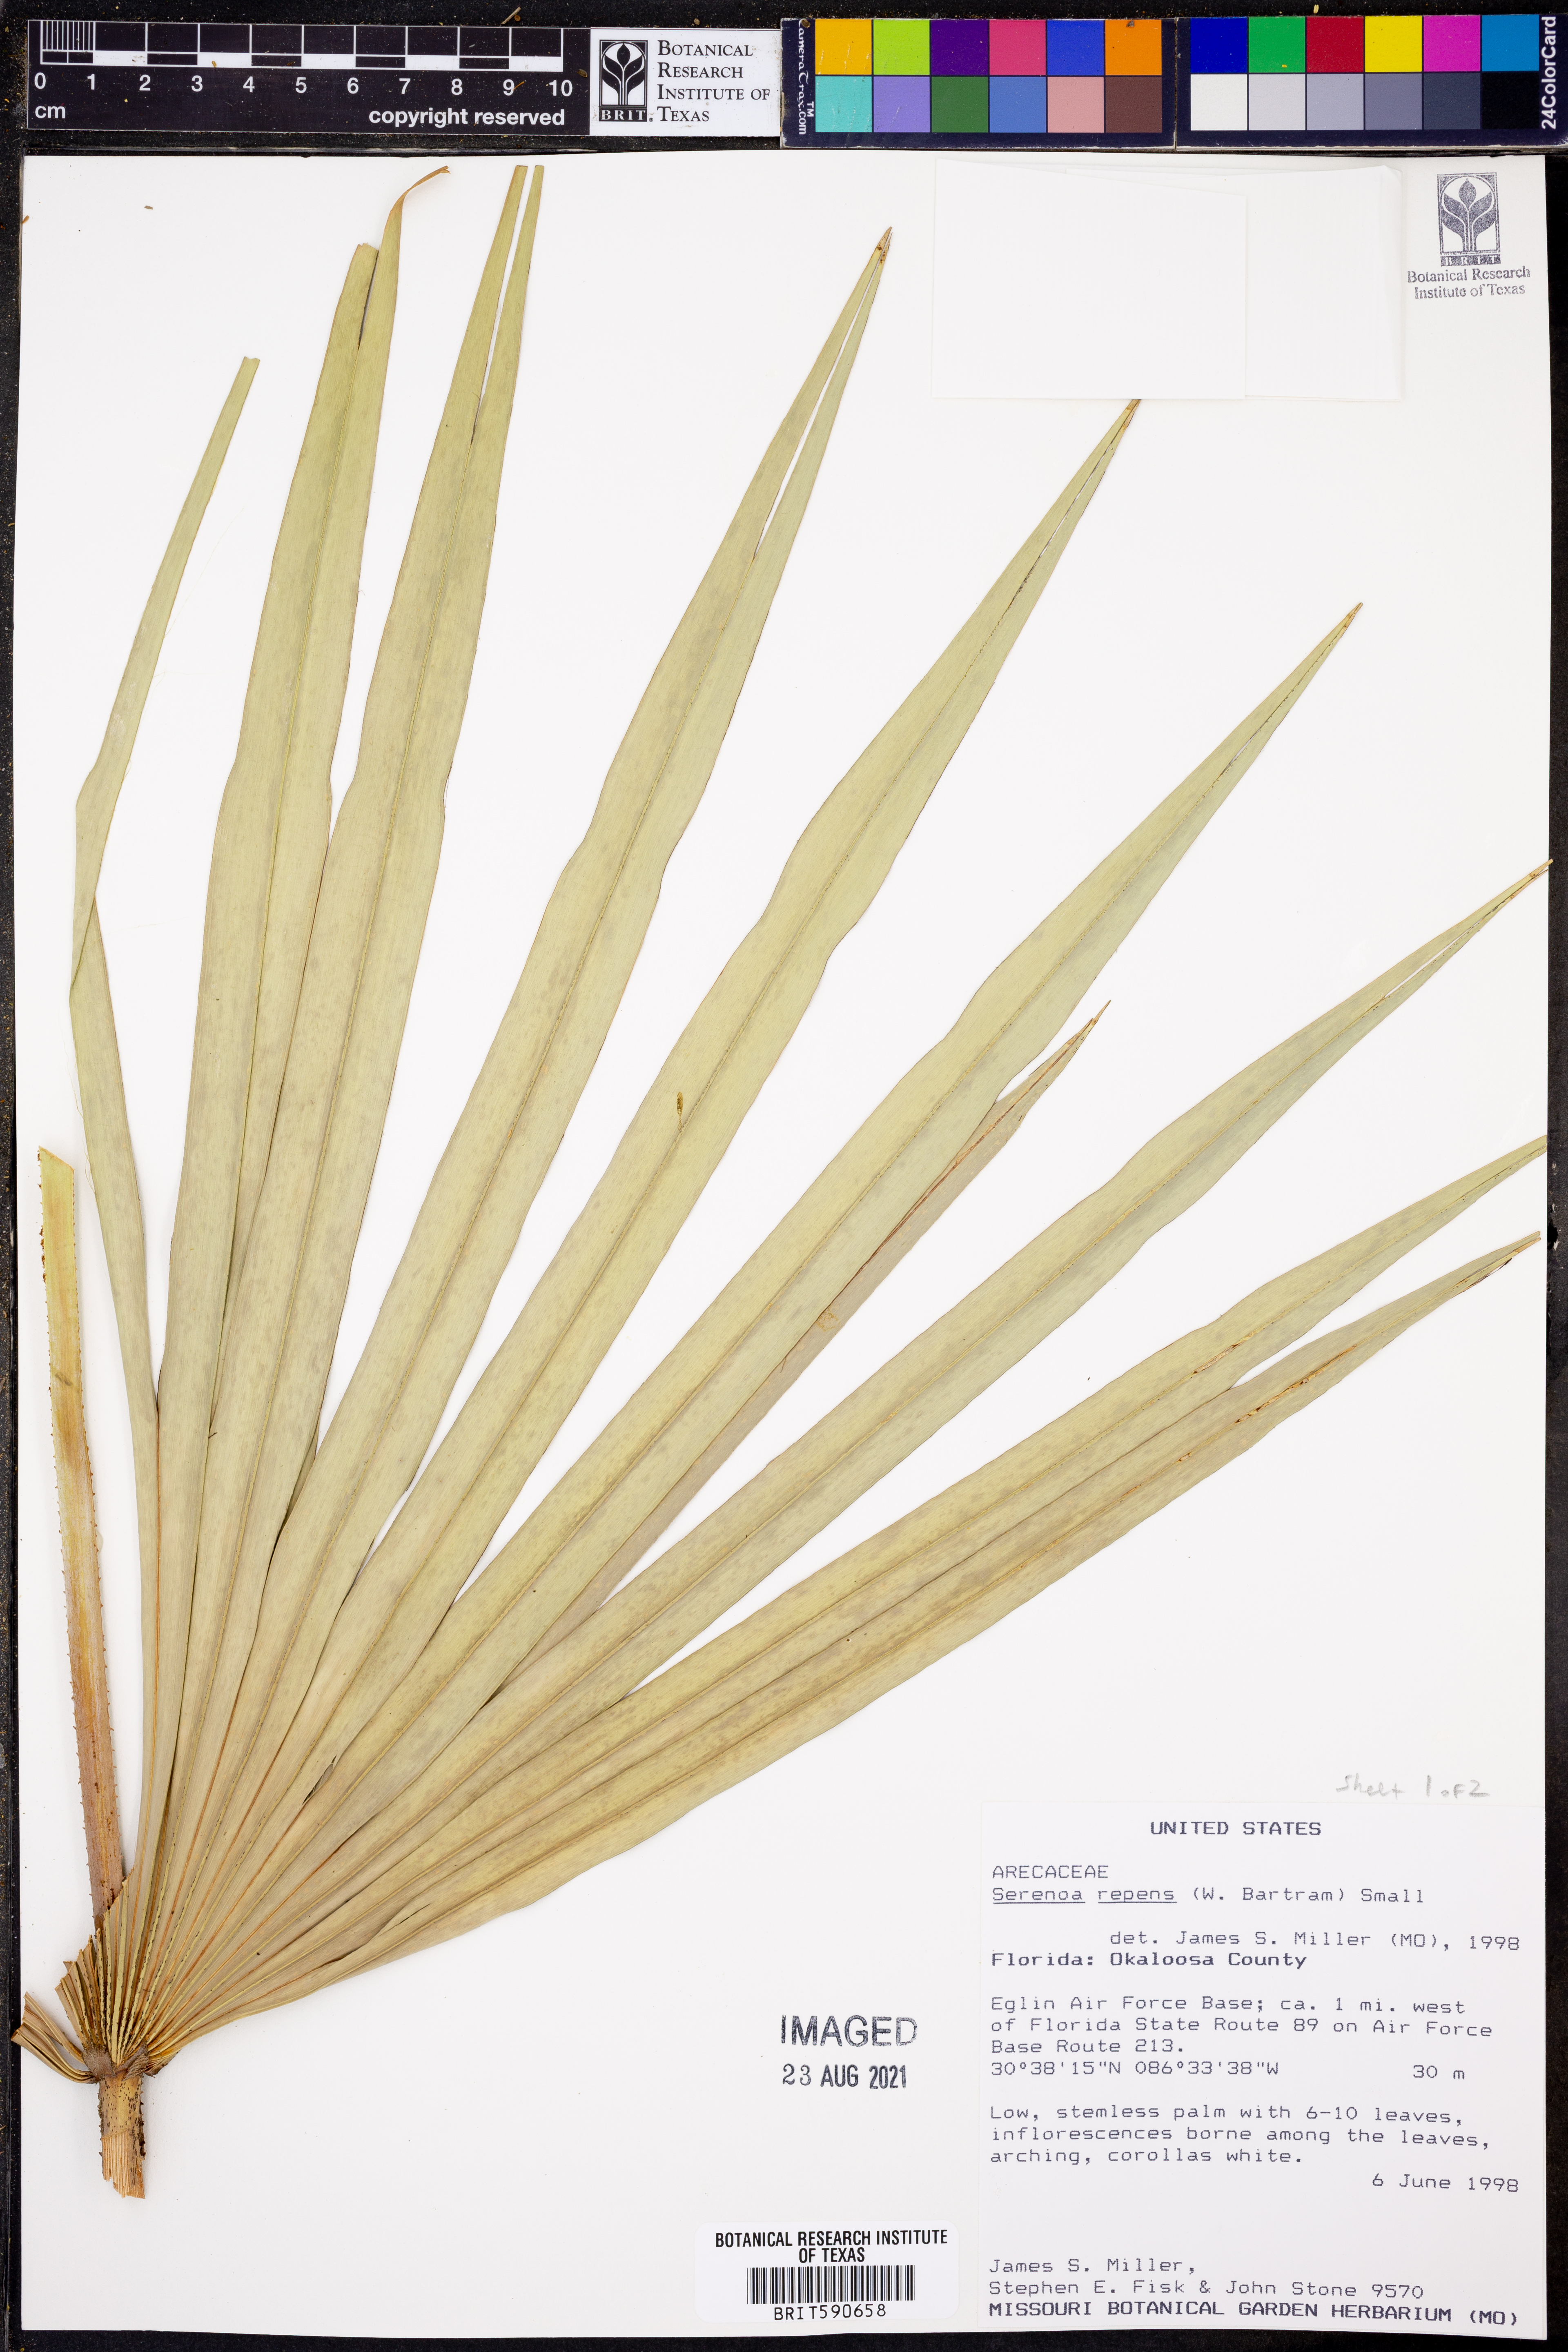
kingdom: Plantae
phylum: Tracheophyta
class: Liliopsida
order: Arecales
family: Arecaceae
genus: Serenoa
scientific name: Serenoa repens
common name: Saw-palmetto
